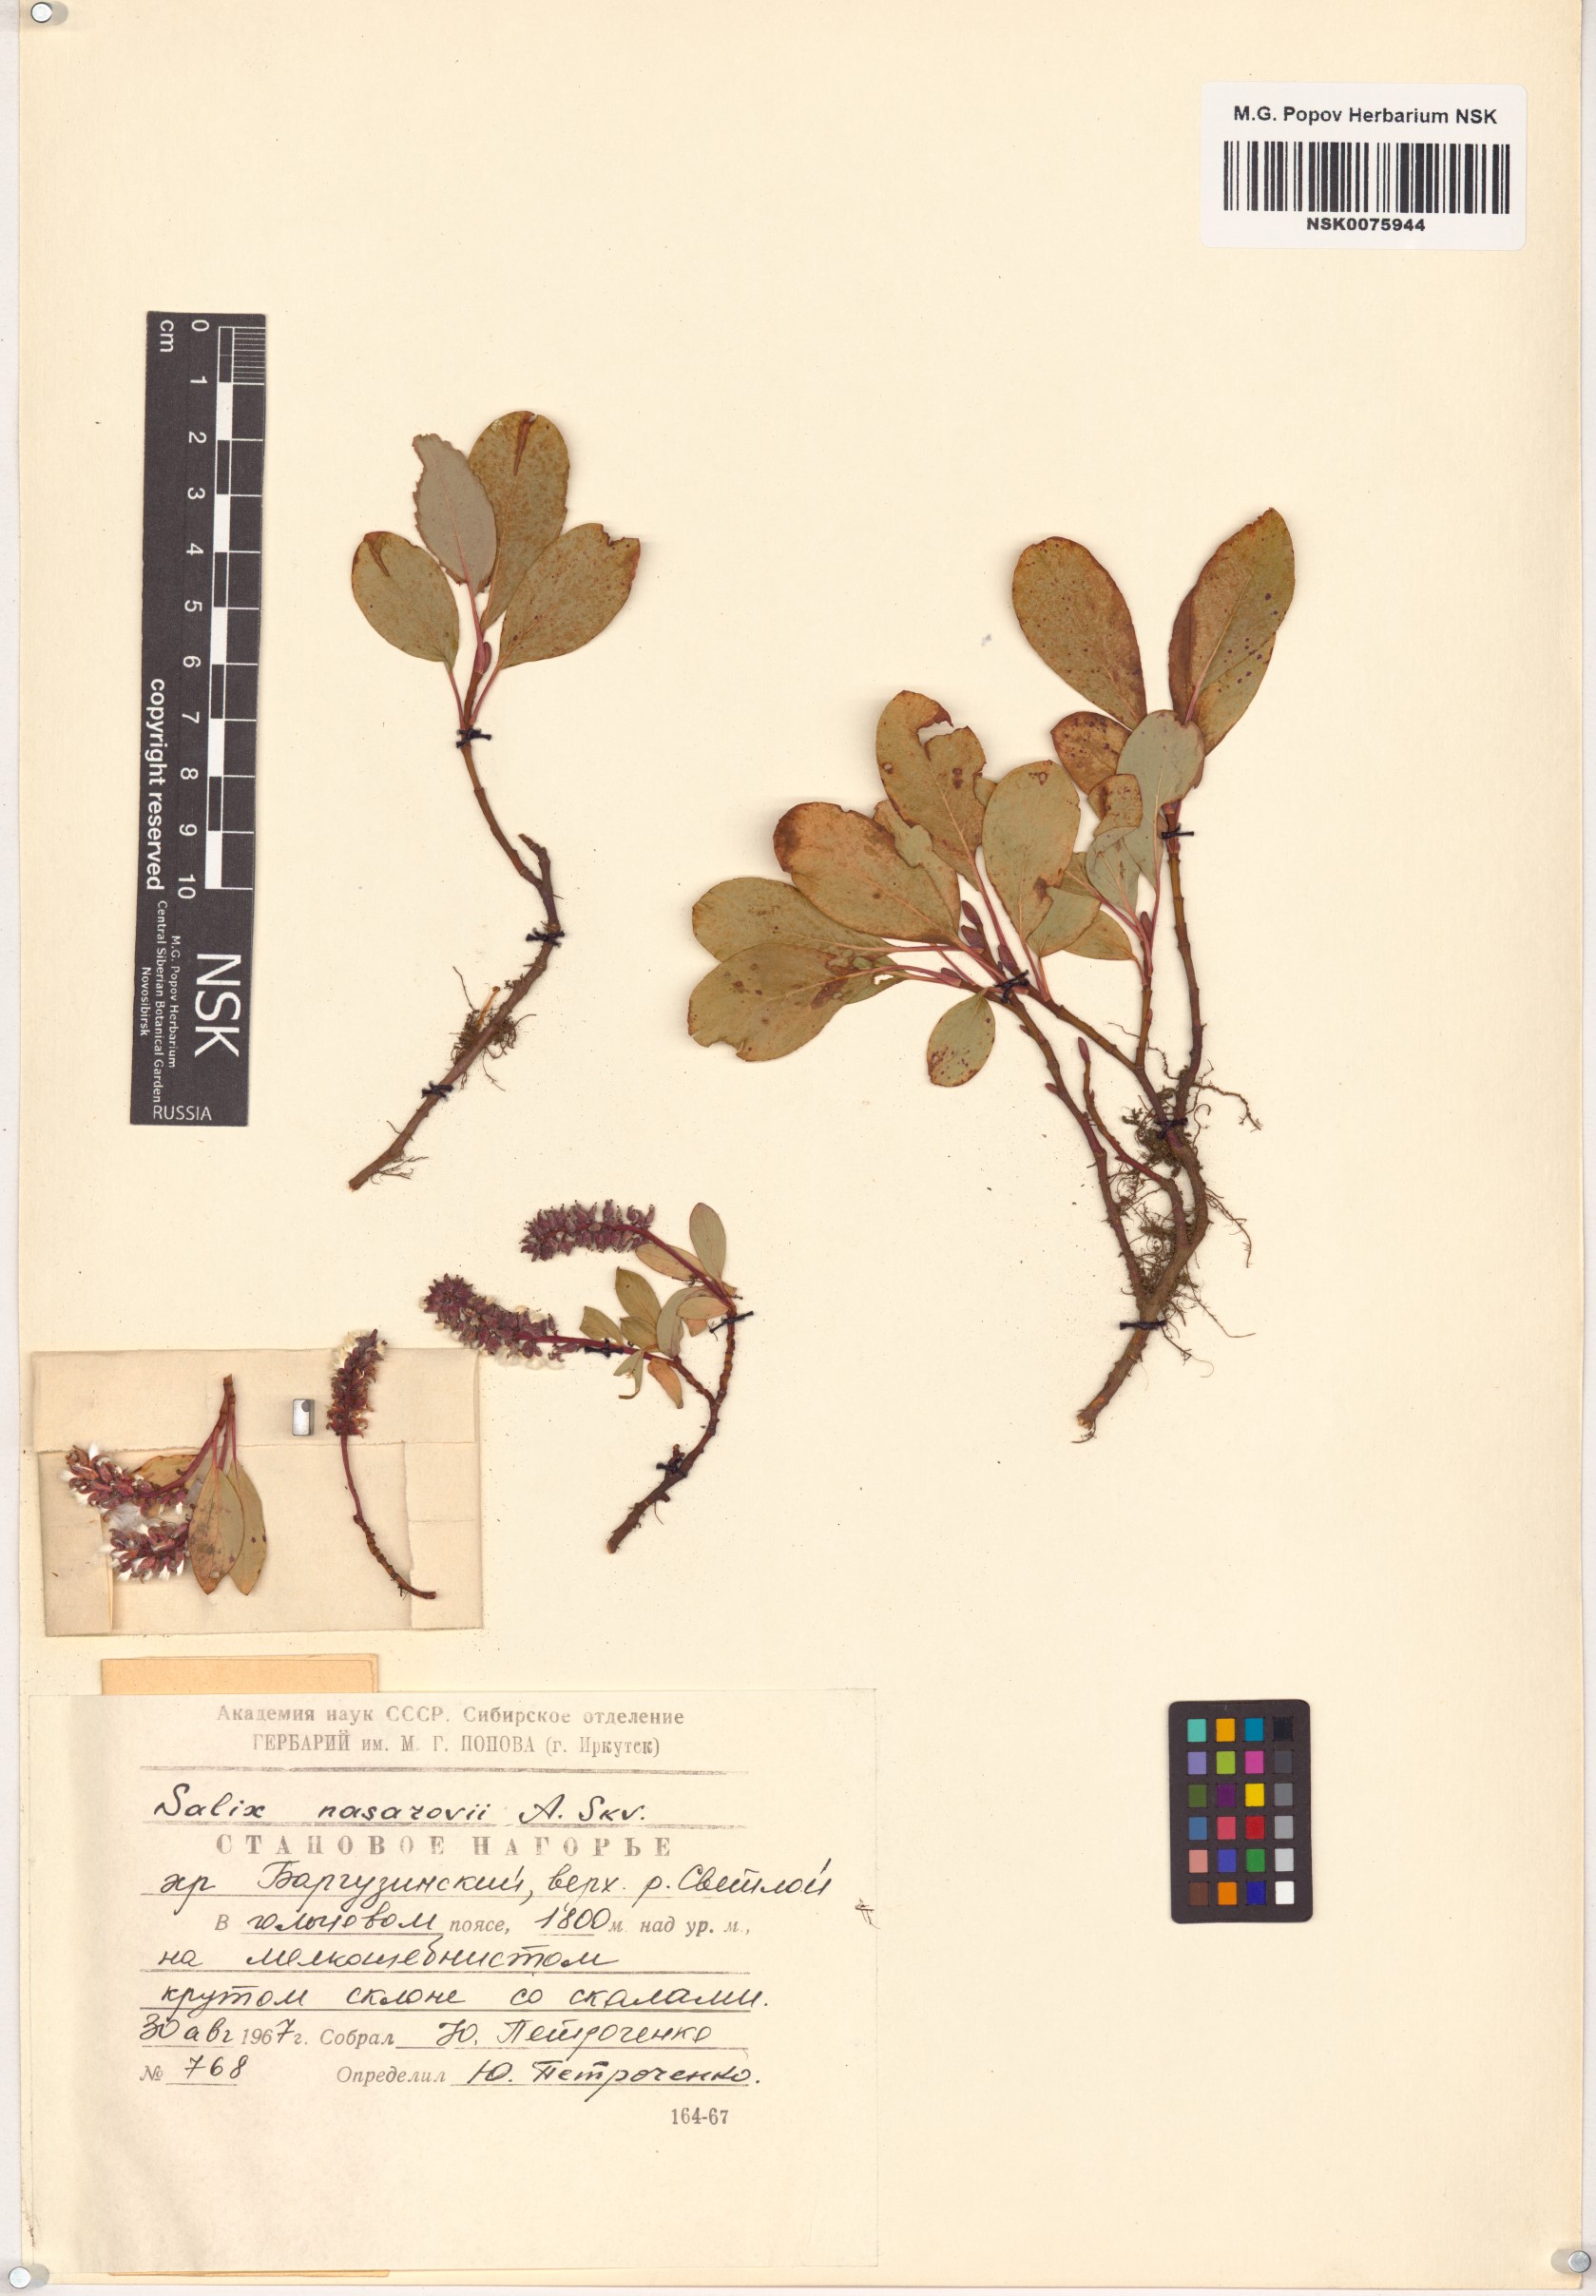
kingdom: Plantae
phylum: Tracheophyta
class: Magnoliopsida
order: Malpighiales
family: Salicaceae
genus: Salix
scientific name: Salix nasarovii
